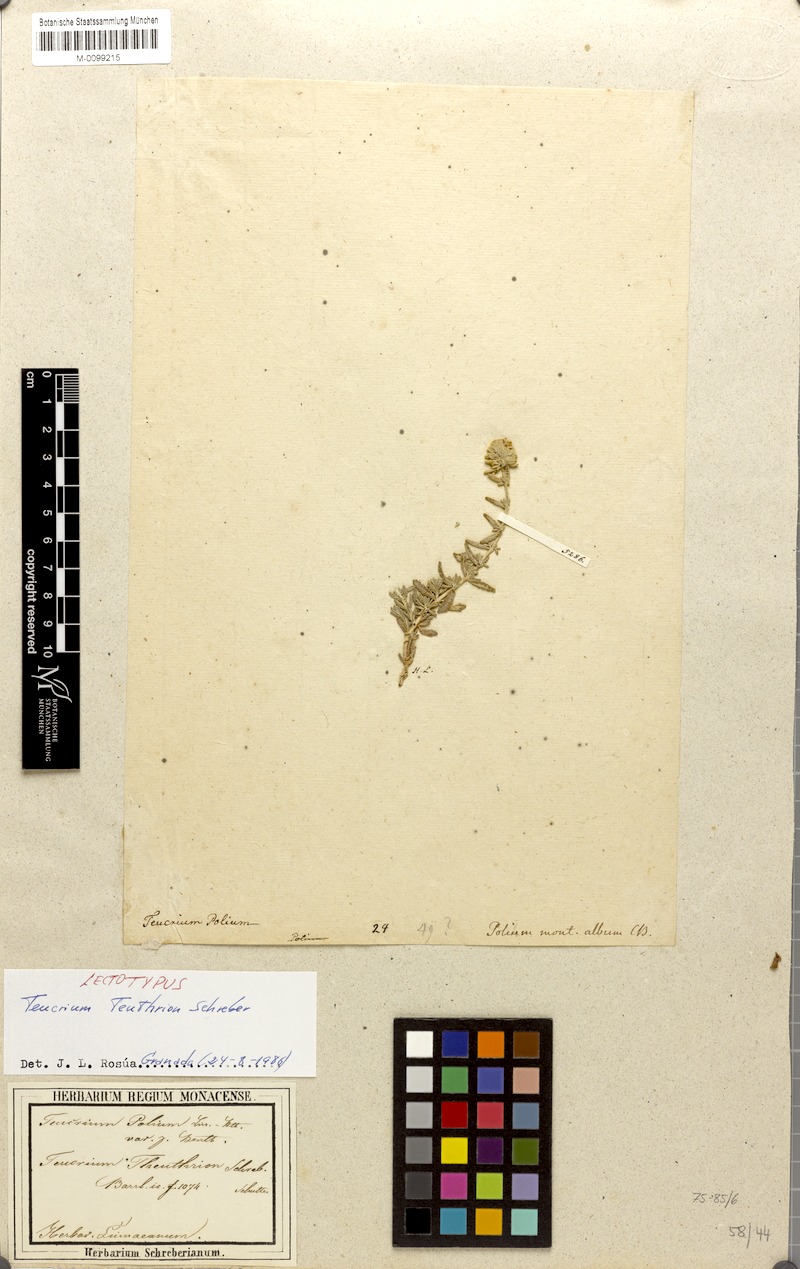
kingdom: Plantae
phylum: Tracheophyta
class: Magnoliopsida
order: Lamiales
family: Lamiaceae
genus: Teucrium
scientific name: Teucrium polium
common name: Poley
